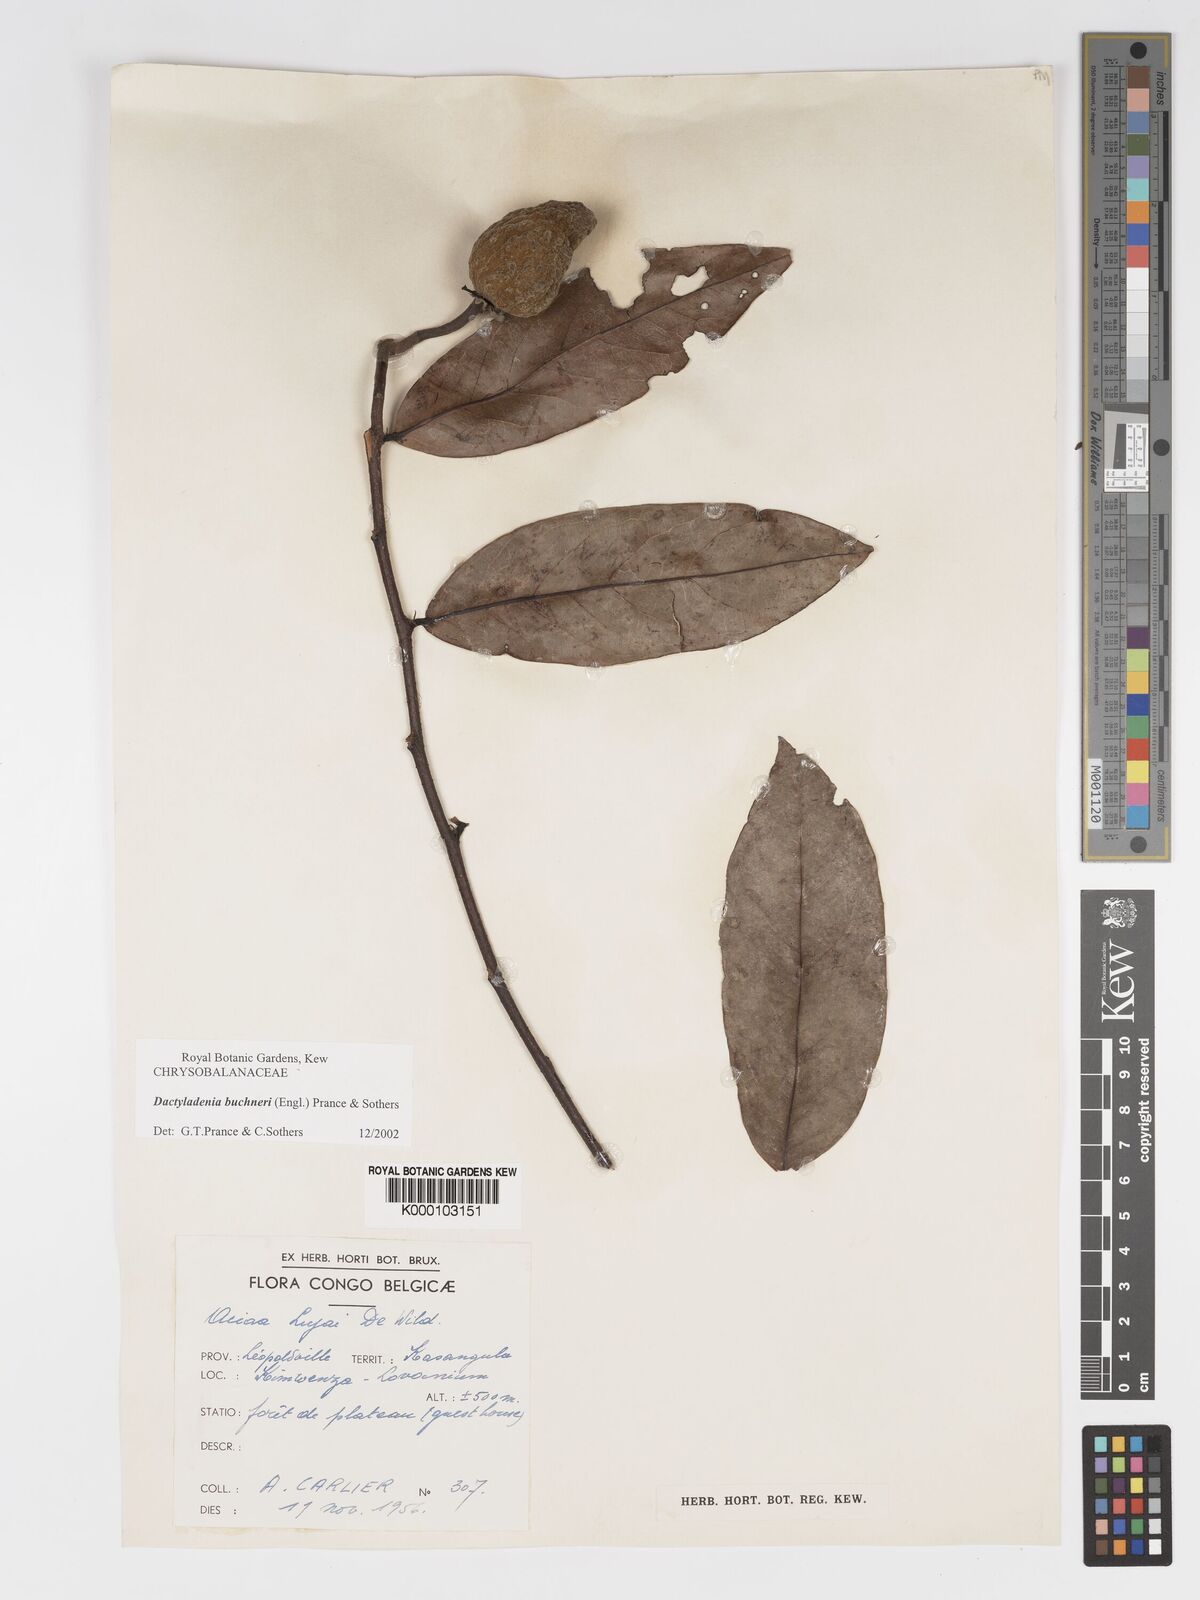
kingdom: Plantae
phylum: Tracheophyta
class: Magnoliopsida
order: Malpighiales
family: Chrysobalanaceae
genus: Dactyladenia
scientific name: Dactyladenia buchneri
